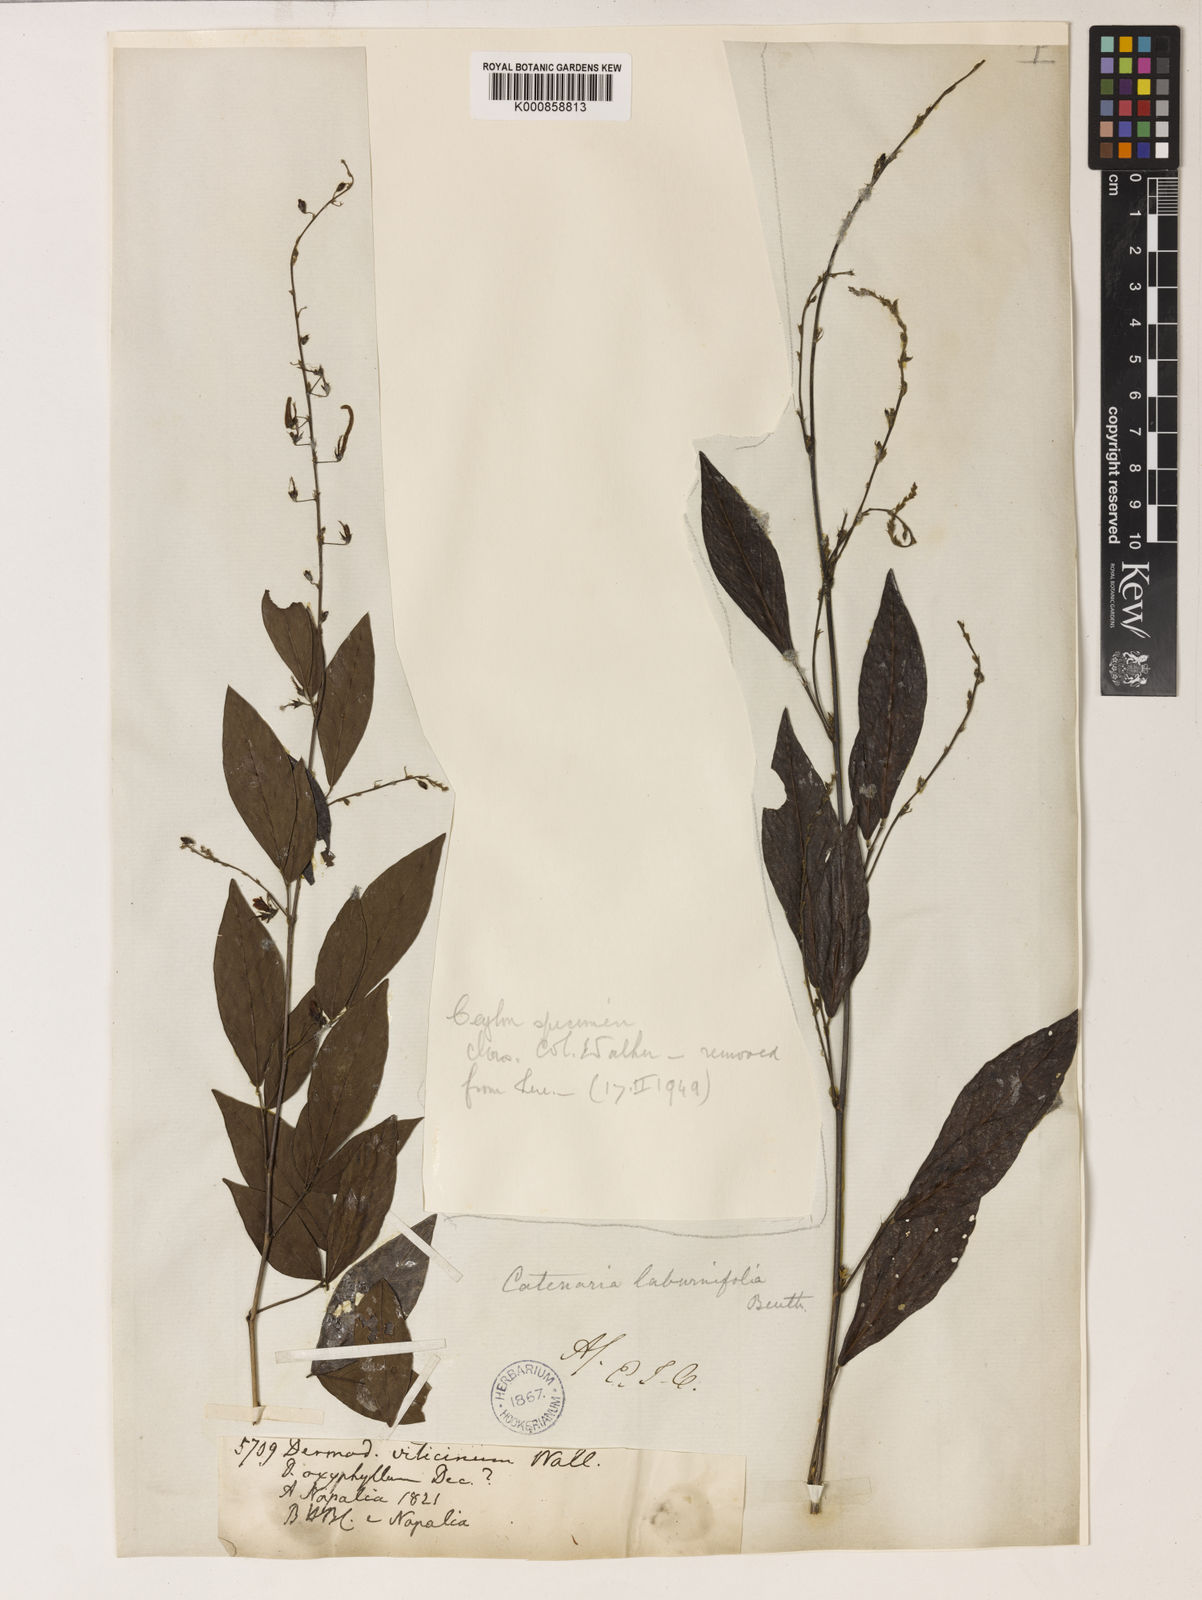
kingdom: Plantae
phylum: Tracheophyta
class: Magnoliopsida
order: Fabales
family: Fabaceae
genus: Ohwia
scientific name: Ohwia caudata
